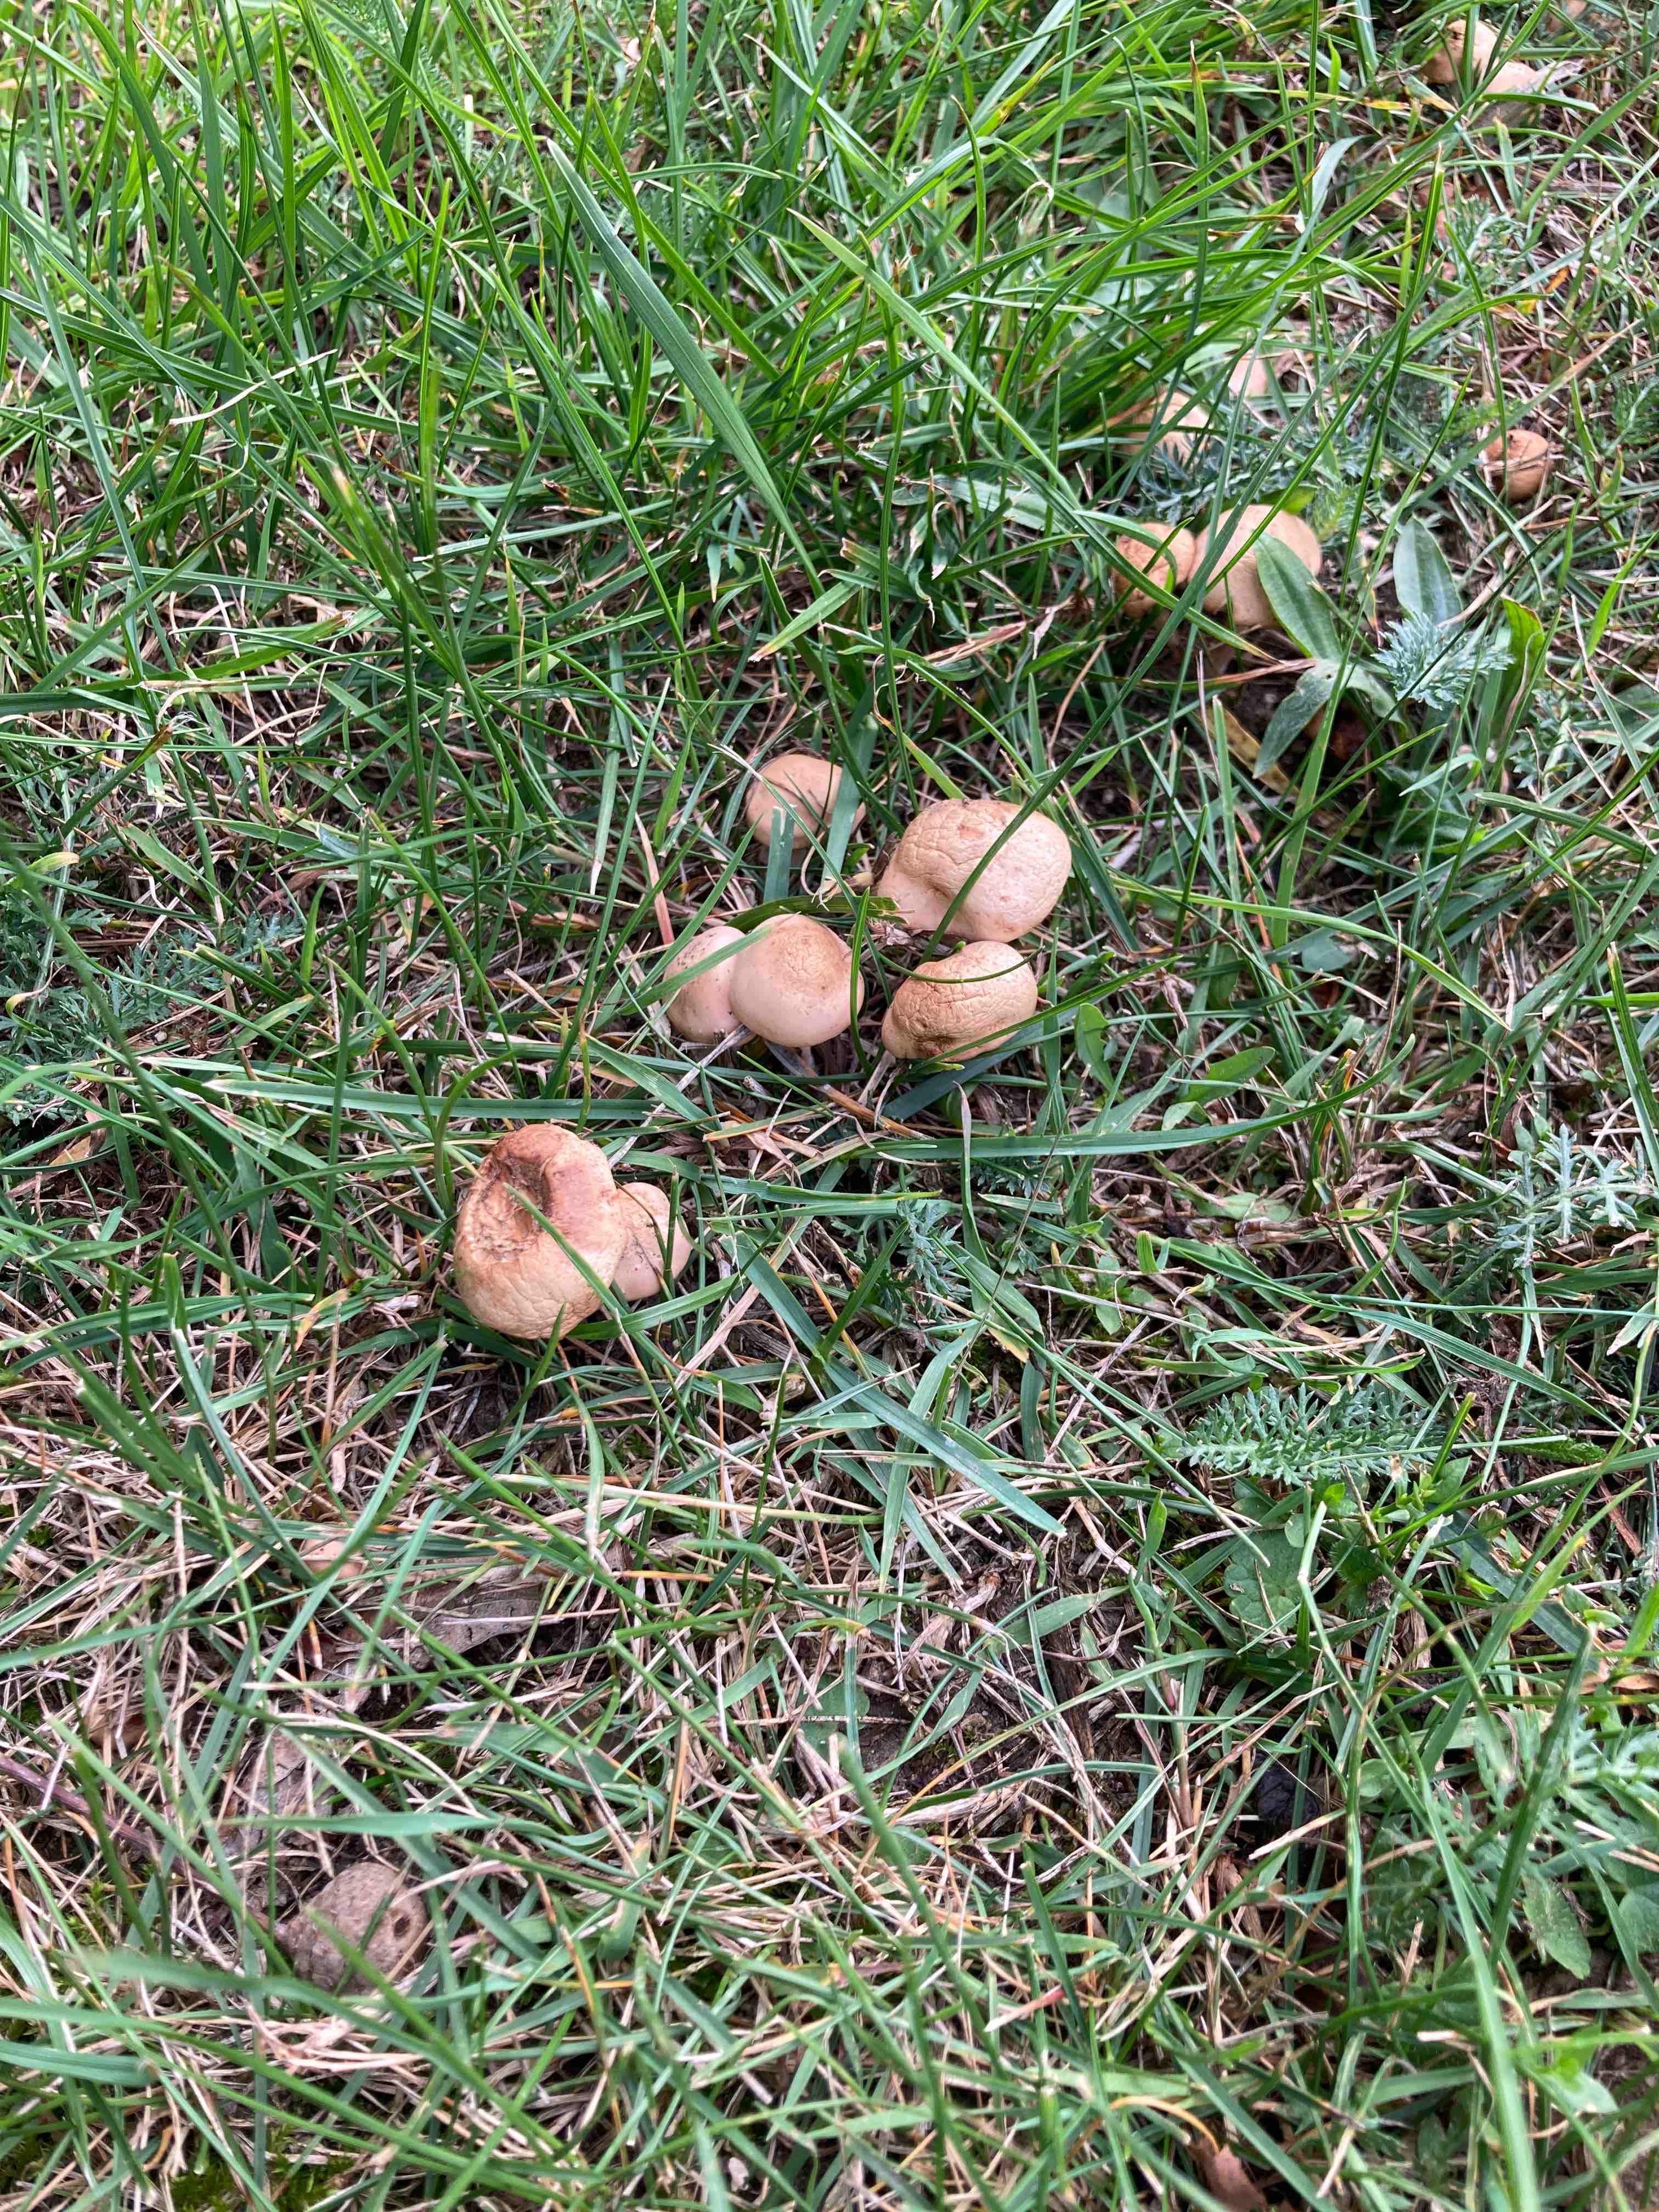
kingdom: Fungi
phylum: Basidiomycota
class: Agaricomycetes
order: Agaricales
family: Marasmiaceae
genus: Marasmius
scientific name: Marasmius oreades
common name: elledans-bruskhat
